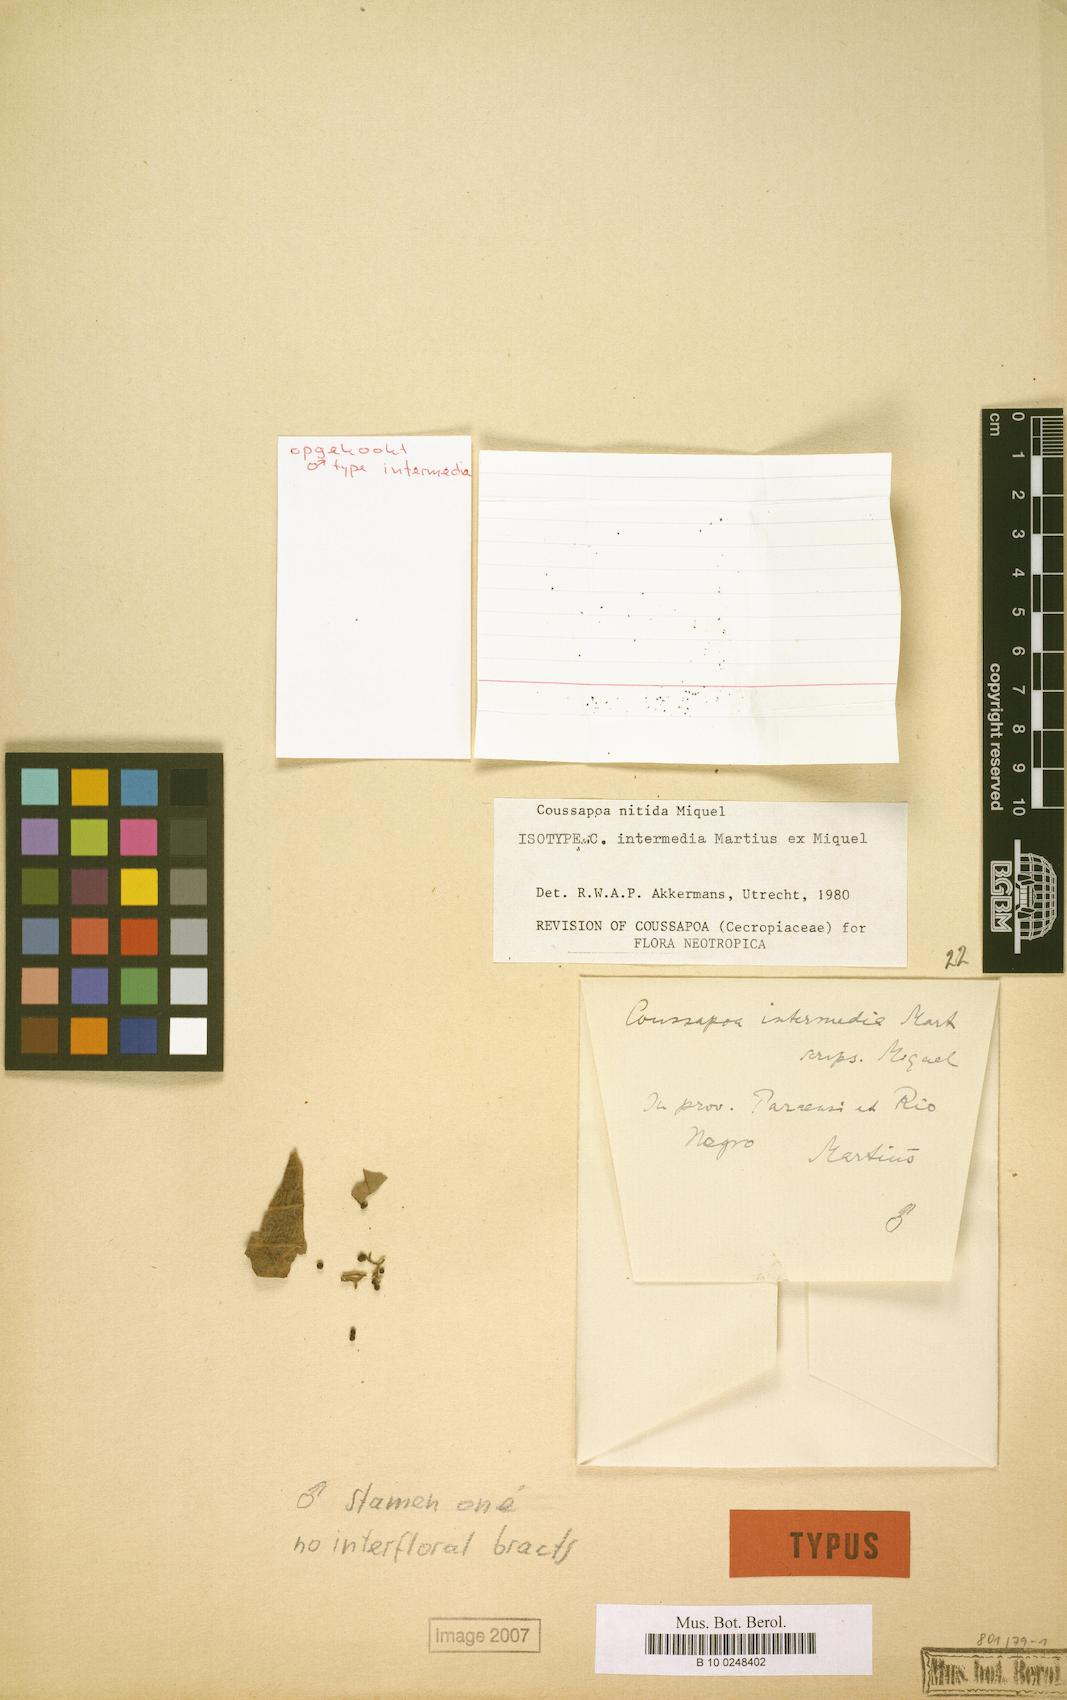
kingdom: Plantae
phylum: Tracheophyta
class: Magnoliopsida
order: Rosales
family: Urticaceae
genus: Coussapoa
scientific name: Coussapoa nitida
